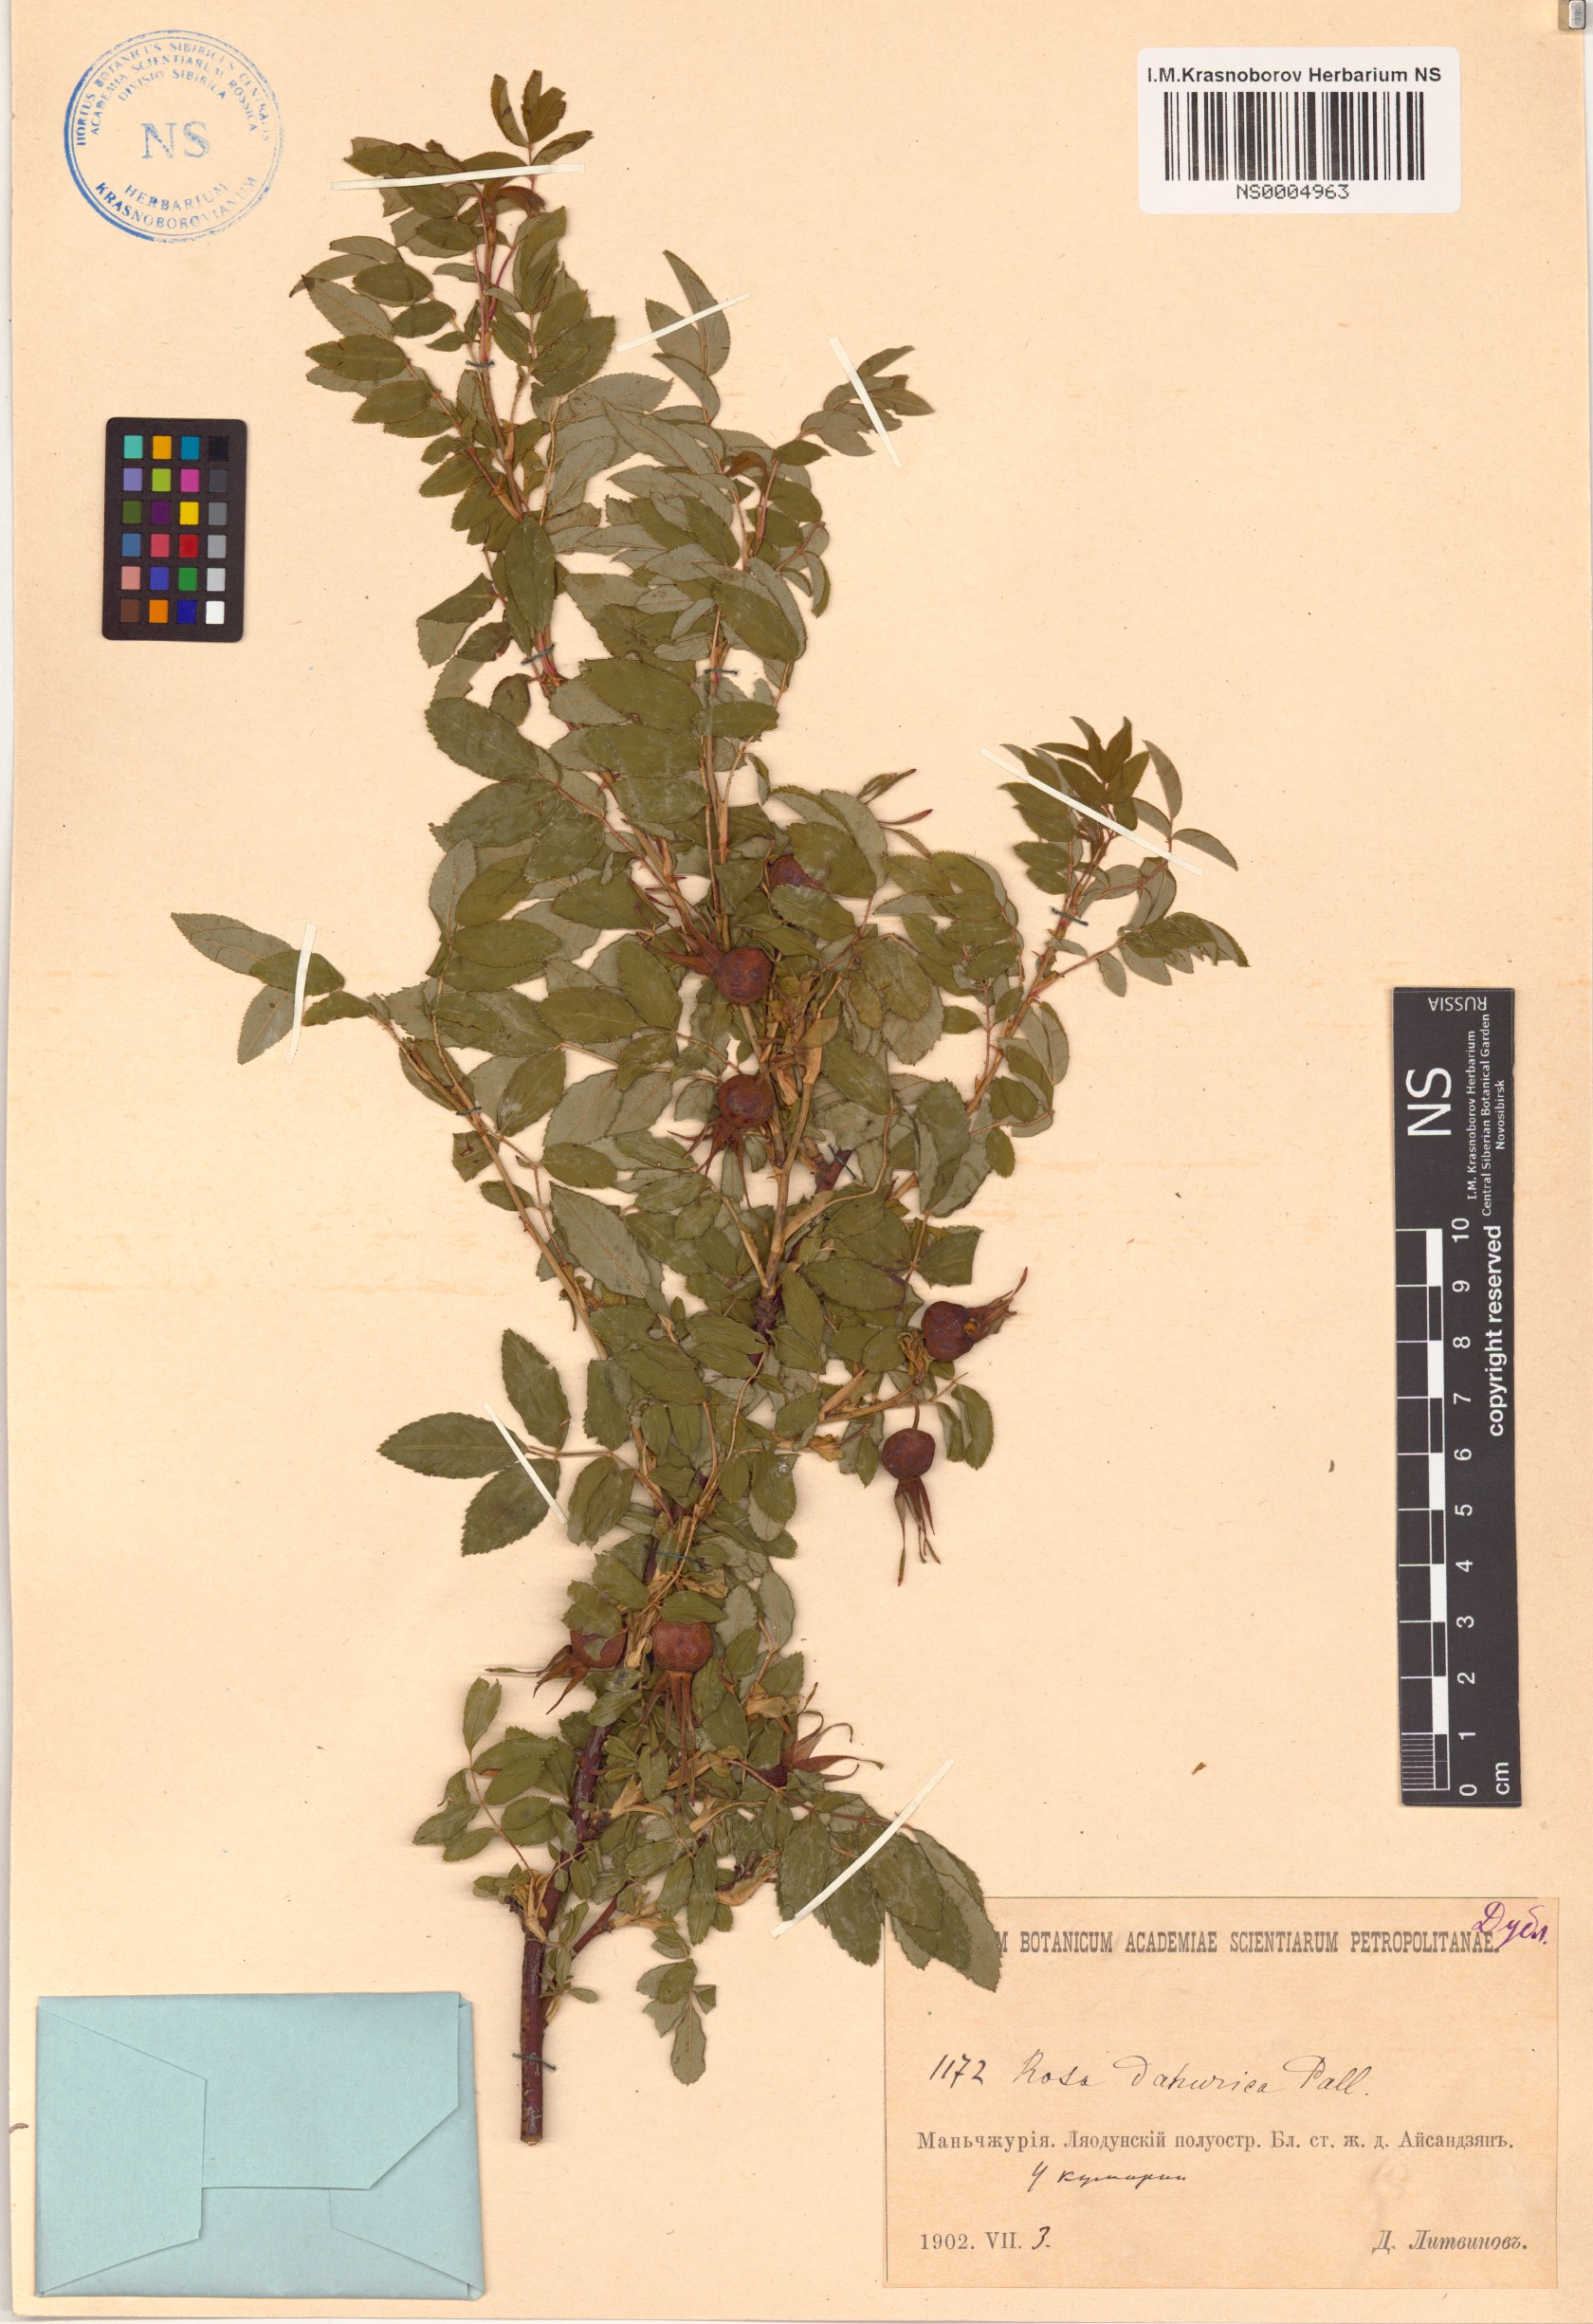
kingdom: Plantae
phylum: Tracheophyta
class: Magnoliopsida
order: Rosales
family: Rosaceae
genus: Rosa
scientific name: Rosa davurica
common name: Amur rose
